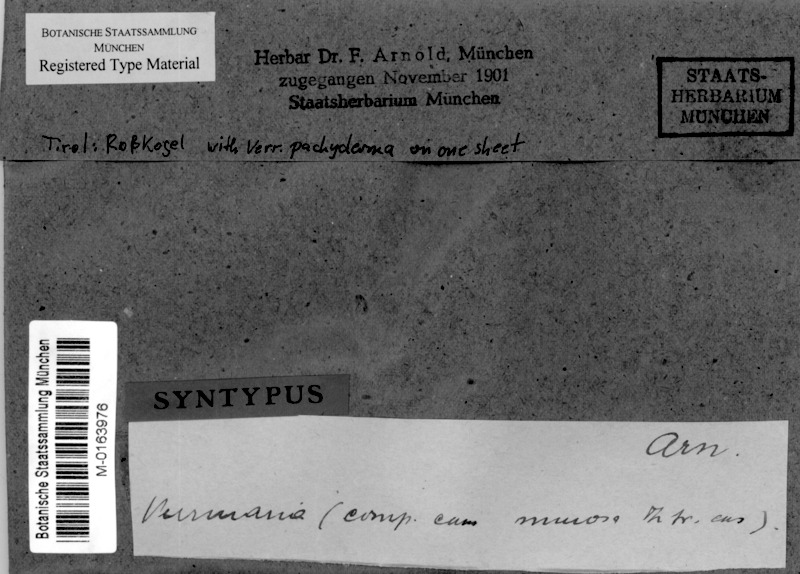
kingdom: Fungi
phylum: Ascomycota
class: Eurotiomycetes
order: Verrucariales
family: Verrucariaceae
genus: Verrucaria
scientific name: Verrucaria pachyderma
